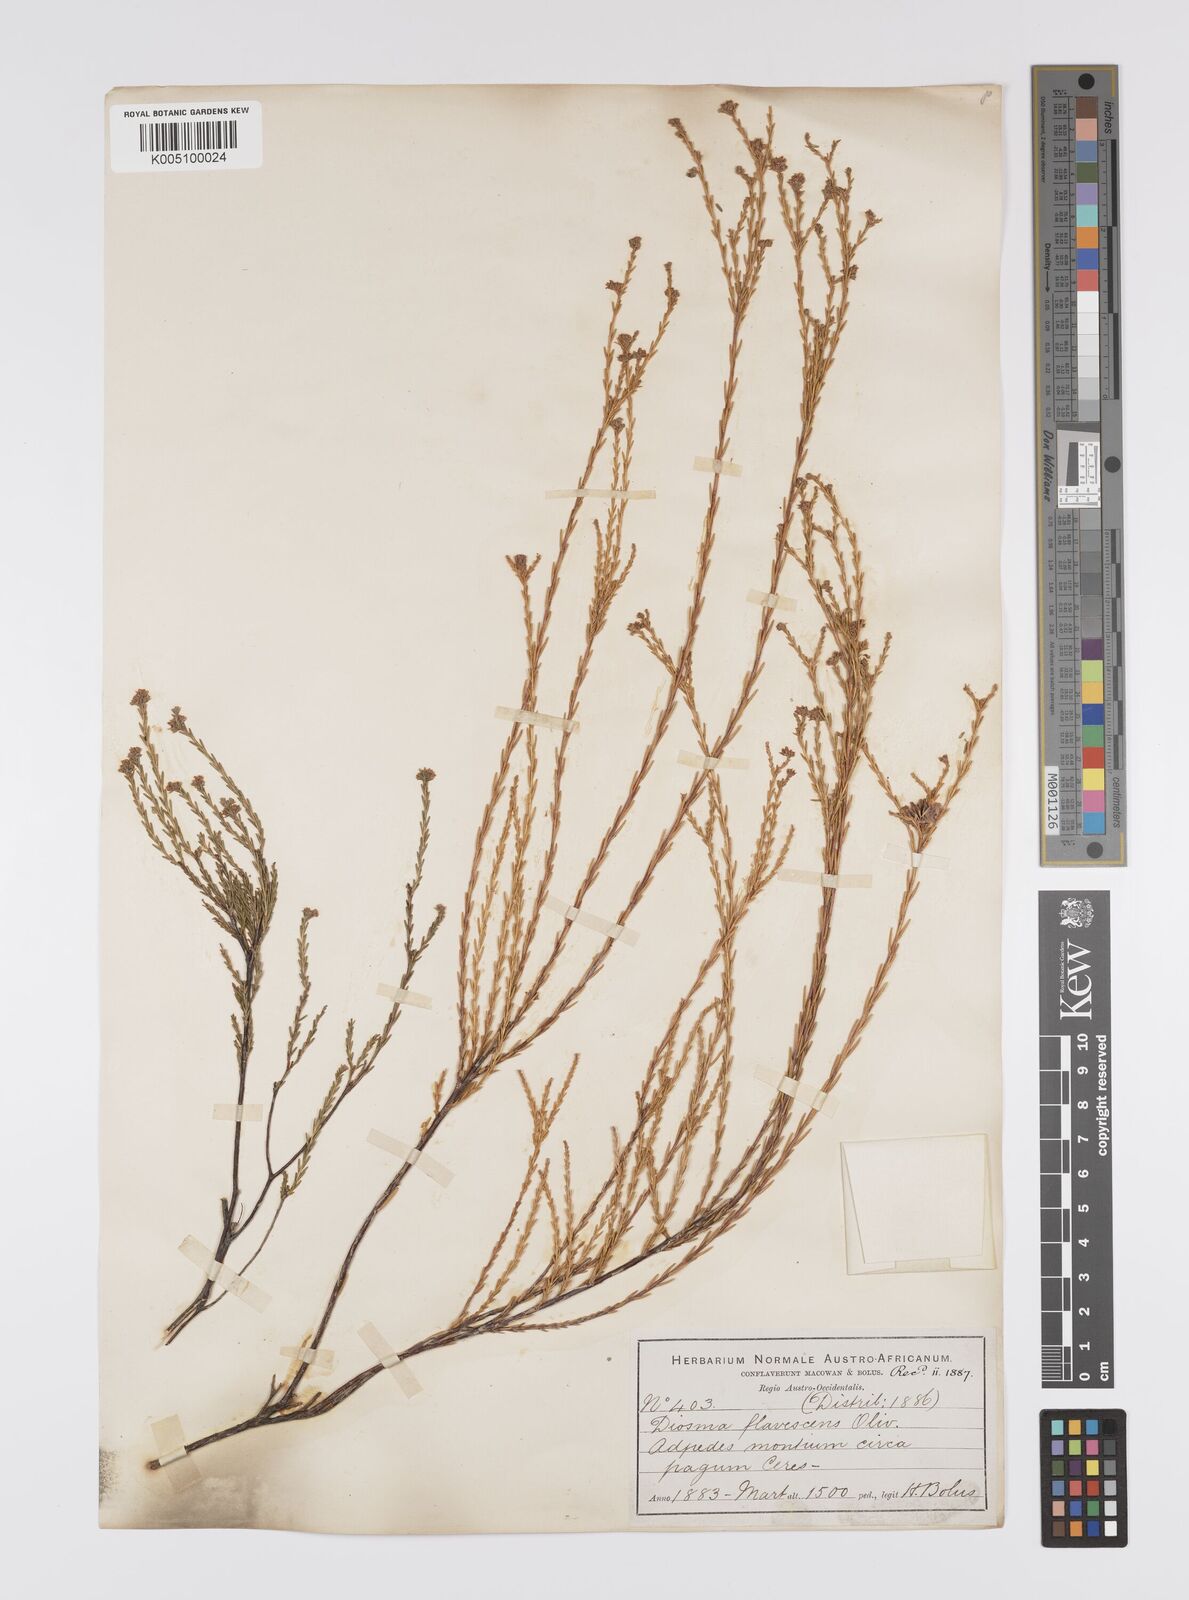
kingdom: Plantae
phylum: Tracheophyta
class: Magnoliopsida
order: Sapindales
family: Rutaceae
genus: Diosma
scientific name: Diosma ramosissima
